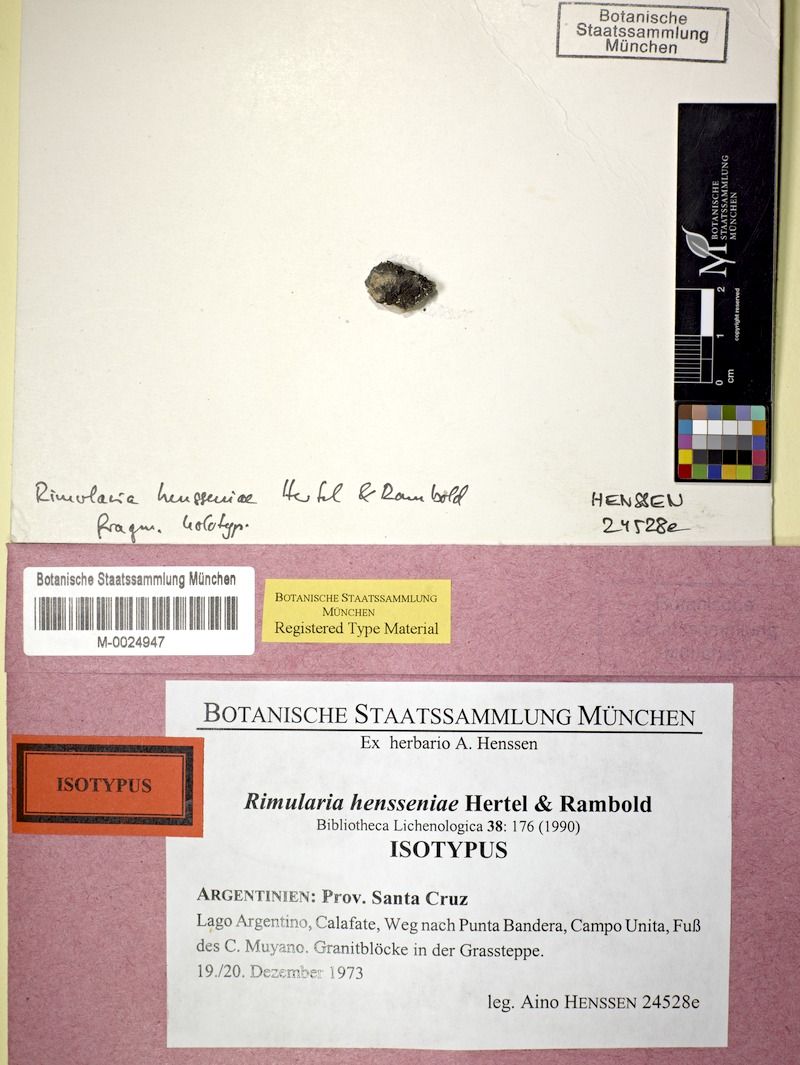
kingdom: Fungi
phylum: Ascomycota
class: Lecanoromycetes
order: Pertusariales
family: Agyriaceae
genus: Rimularia
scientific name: Rimularia hensseniae
